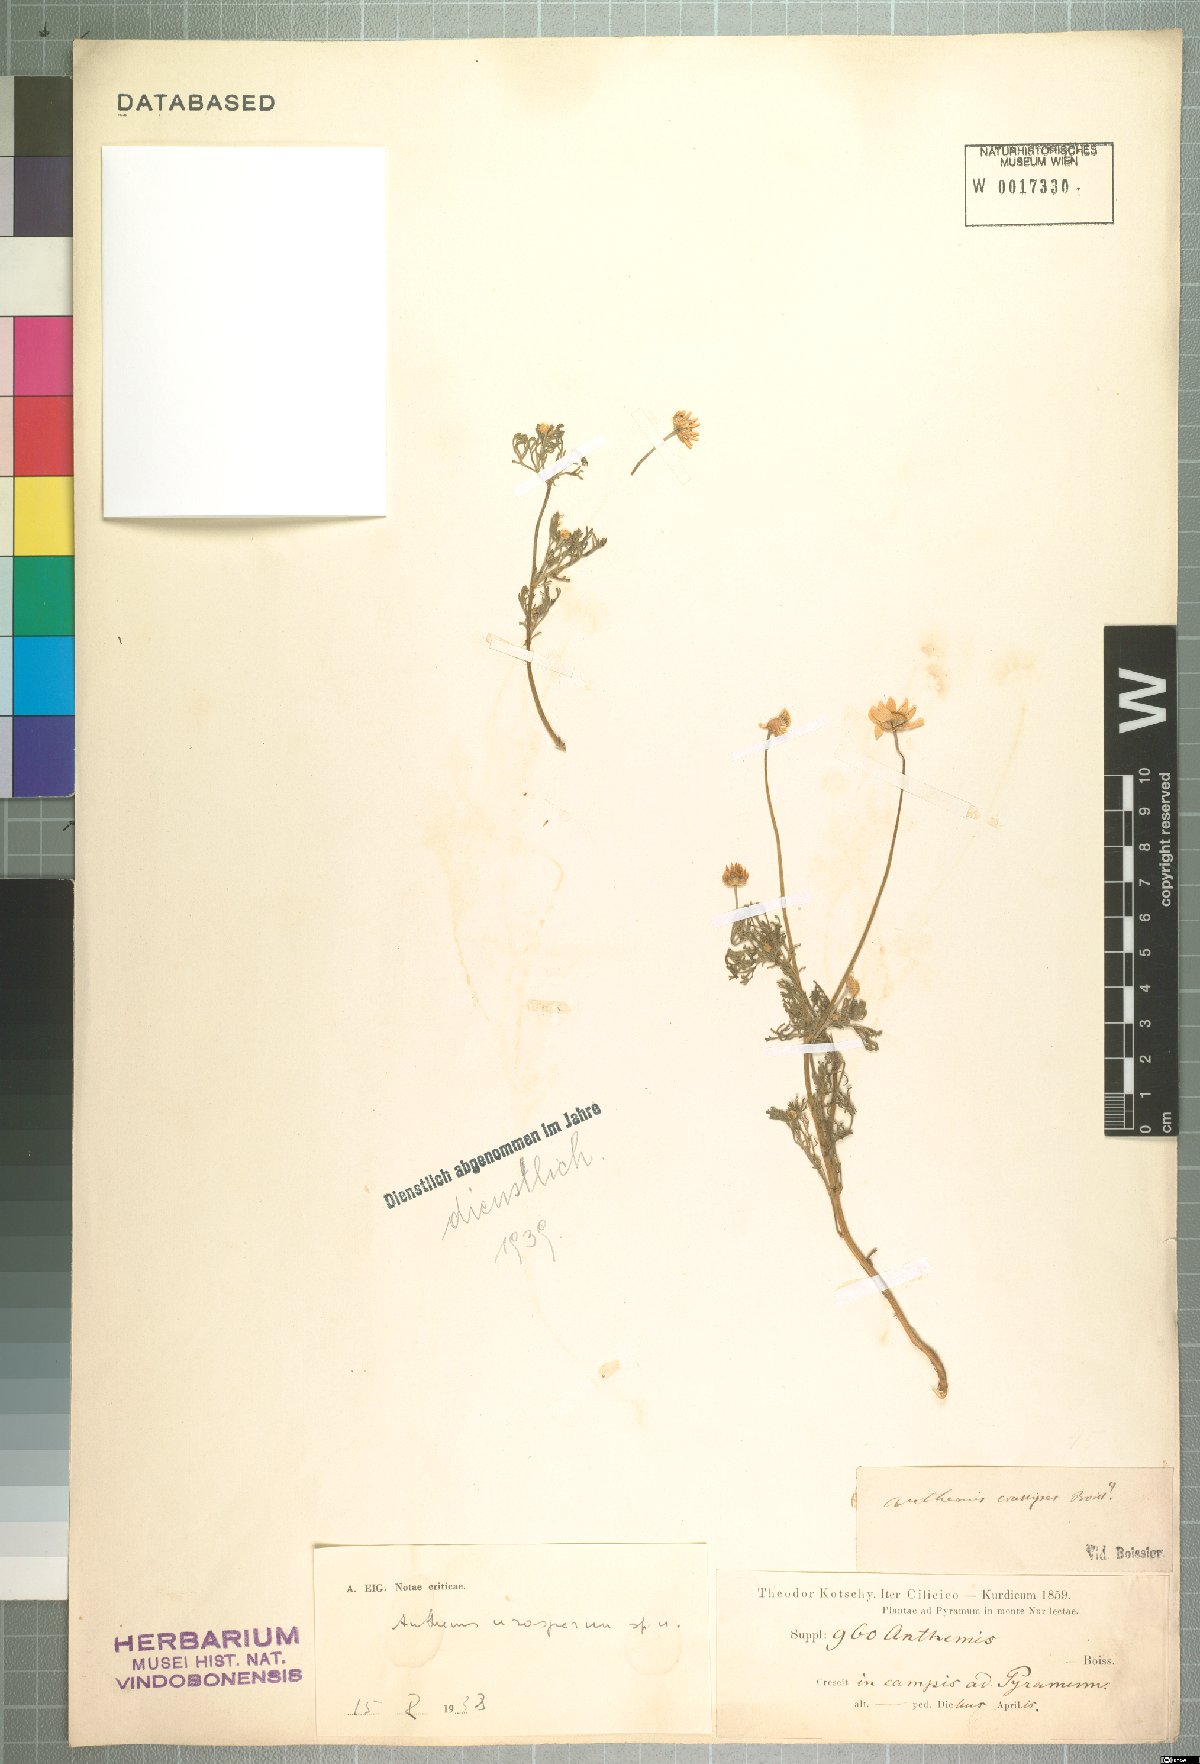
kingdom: Plantae
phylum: Tracheophyta
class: Magnoliopsida
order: Asterales
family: Asteraceae
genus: Anthemis
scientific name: Anthemis arenicola
